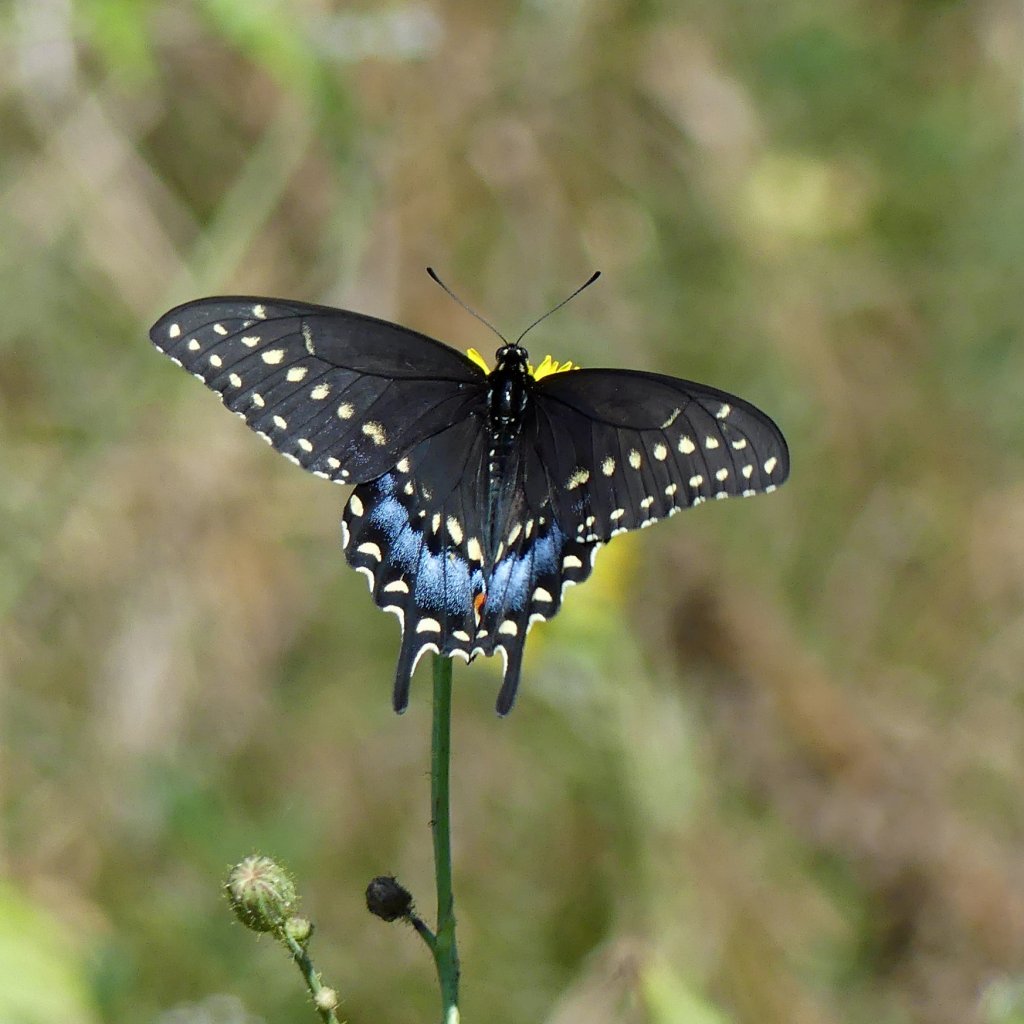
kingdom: Animalia
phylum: Arthropoda
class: Insecta
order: Lepidoptera
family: Papilionidae
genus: Papilio
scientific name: Papilio polyxenes
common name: Black Swallowtail
